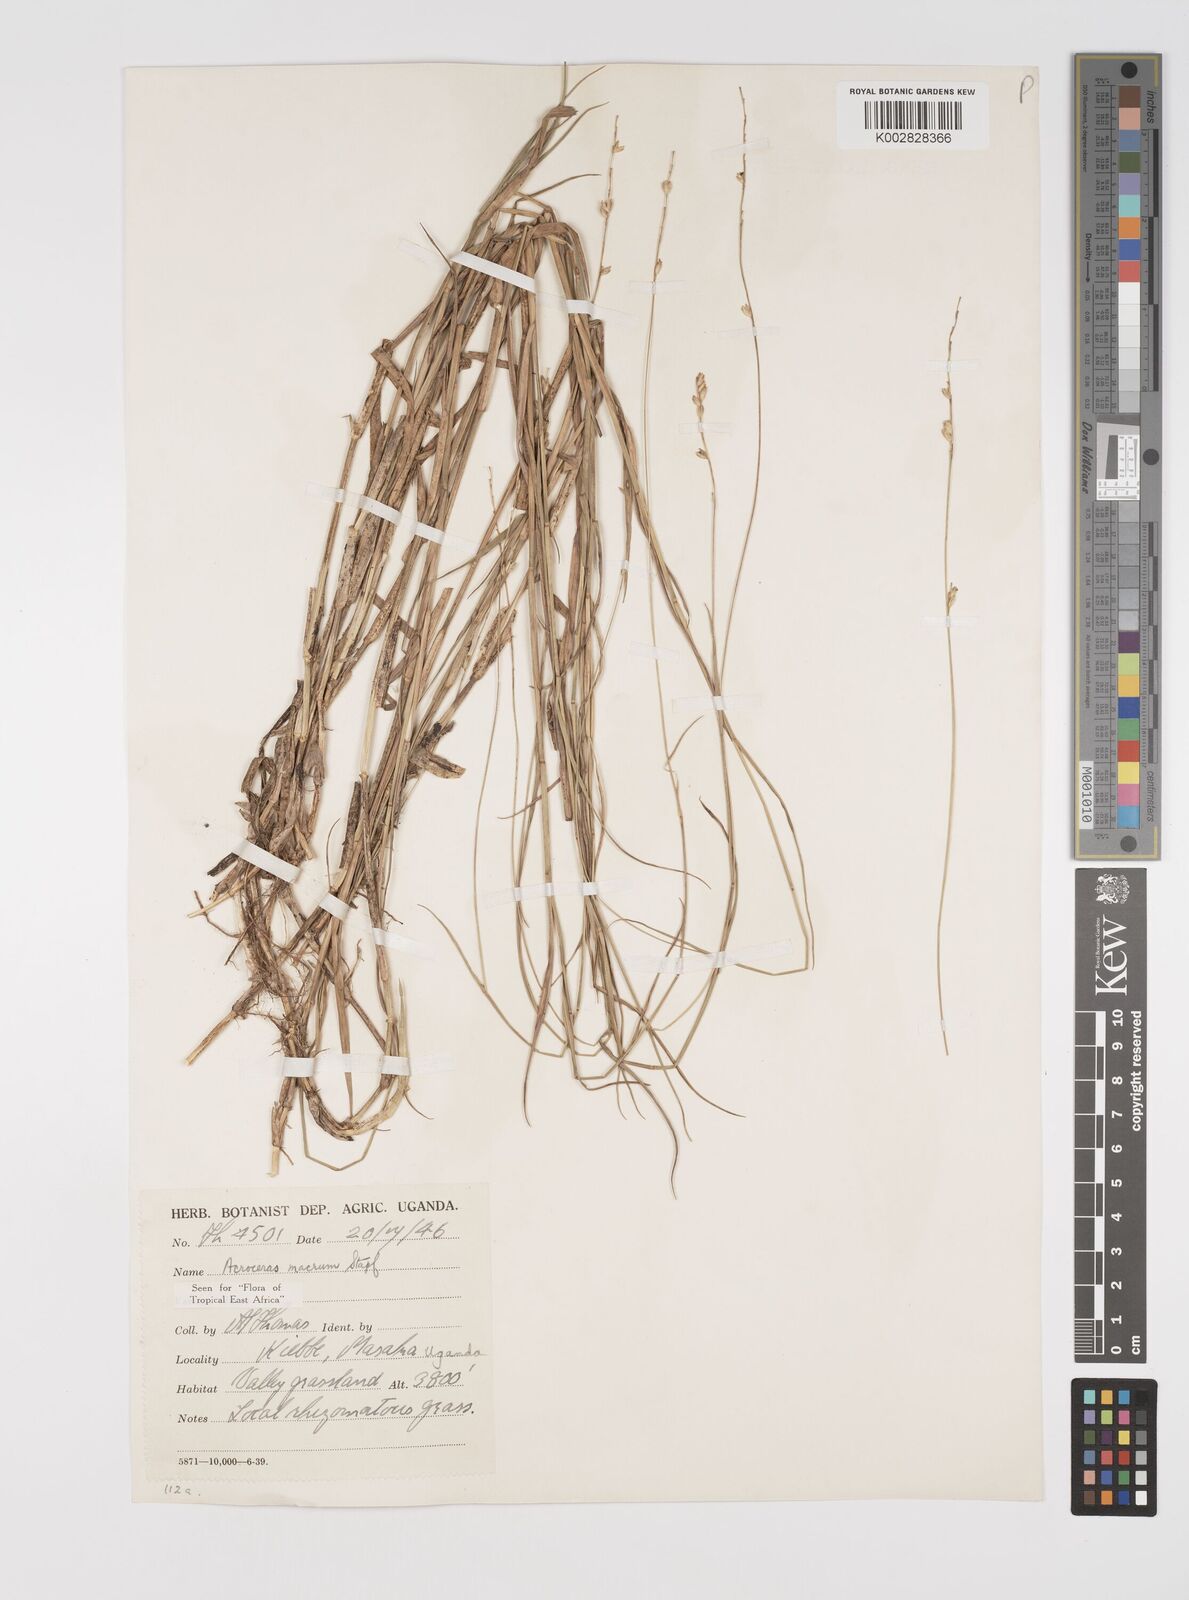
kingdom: Plantae
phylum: Tracheophyta
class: Liliopsida
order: Poales
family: Poaceae
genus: Acroceras
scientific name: Acroceras macrum
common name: Nyl grass
